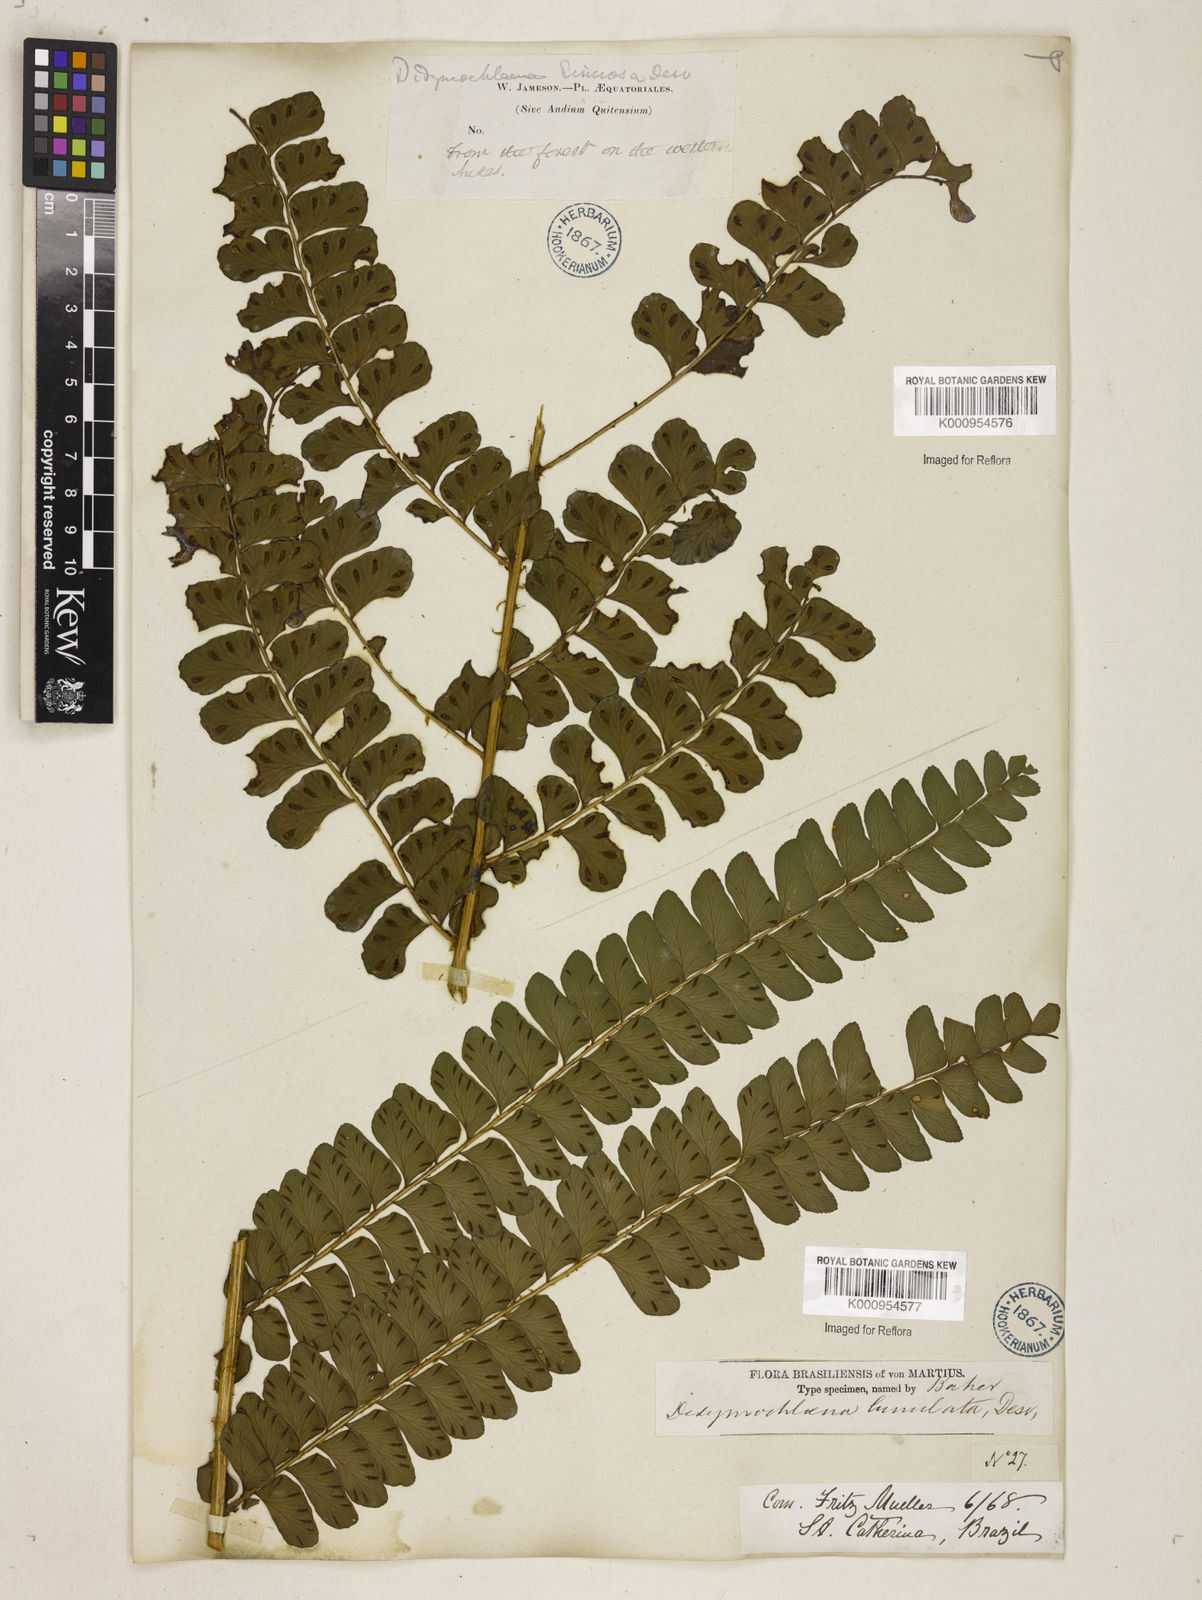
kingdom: Plantae
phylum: Tracheophyta
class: Polypodiopsida
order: Polypodiales
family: Didymochlaenaceae
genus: Didymochlaena
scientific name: Didymochlaena truncatula
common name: Mahogany fern
